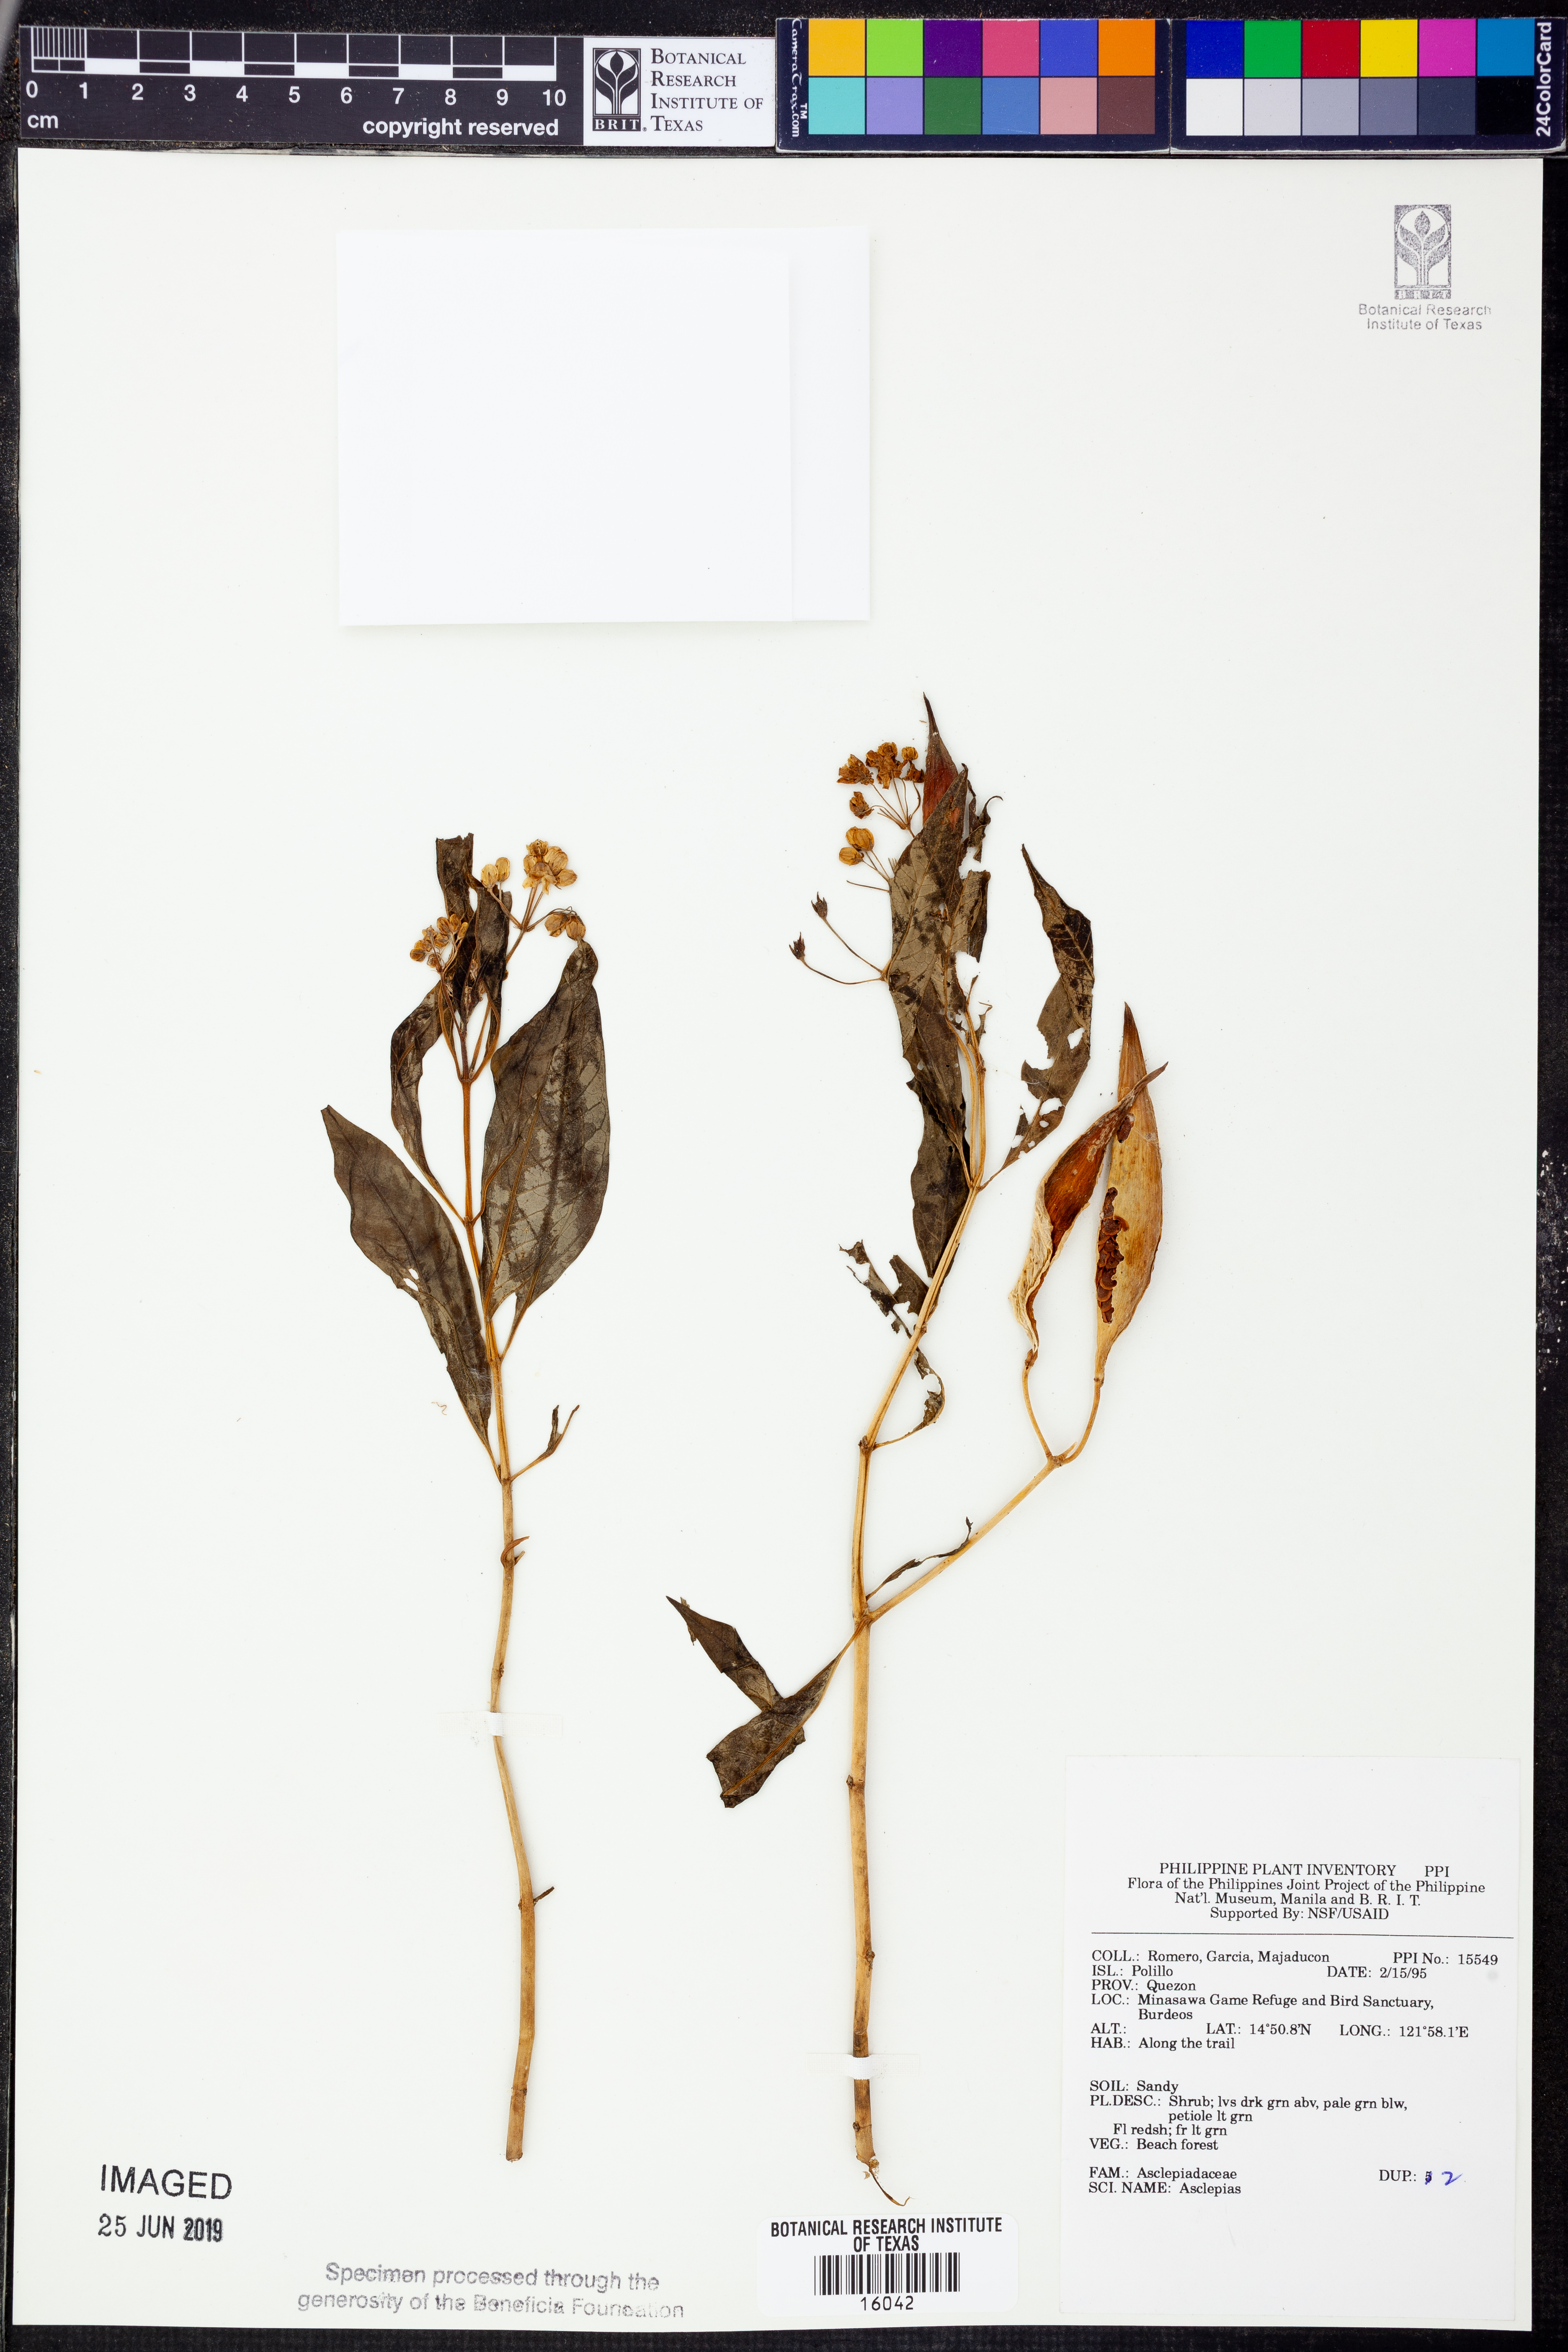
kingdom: Plantae
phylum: Tracheophyta
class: Magnoliopsida
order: Gentianales
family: Apocynaceae
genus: Asclepias
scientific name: Asclepias
